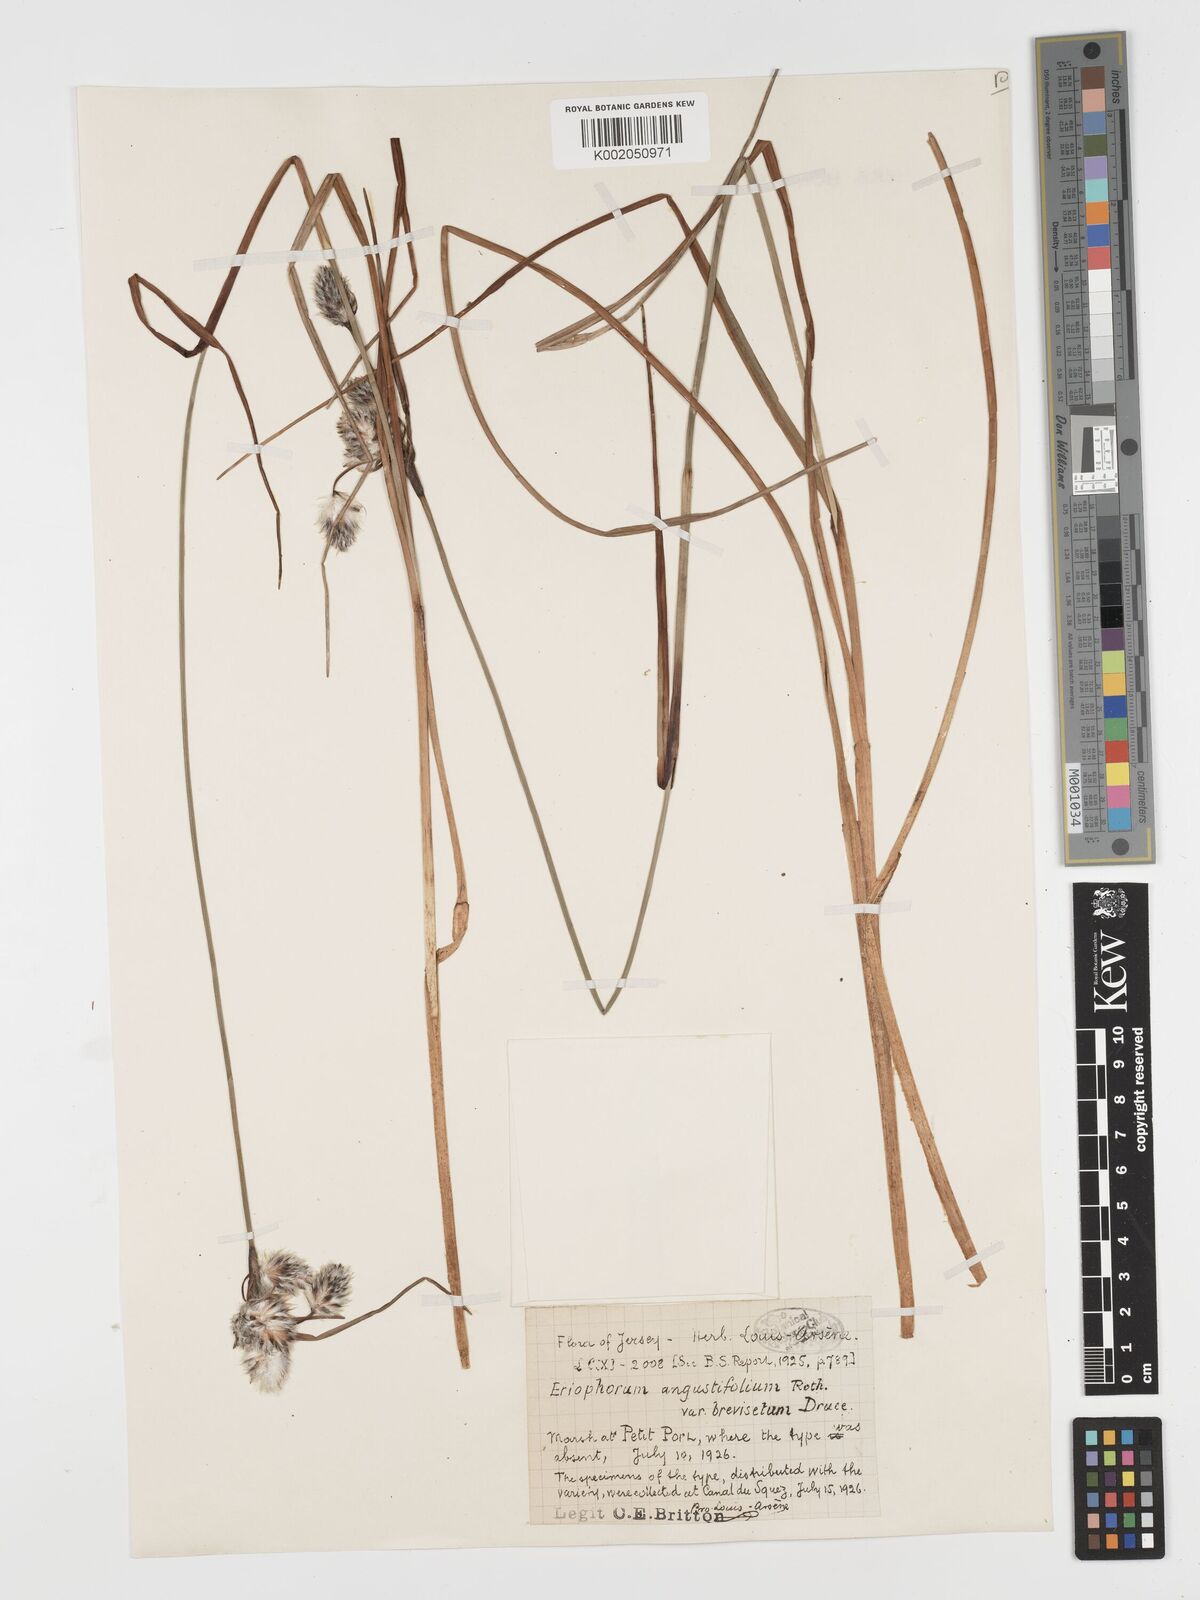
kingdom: Plantae
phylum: Tracheophyta
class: Liliopsida
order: Poales
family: Cyperaceae
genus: Eriophorum
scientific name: Eriophorum angustifolium
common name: Common cottongrass
